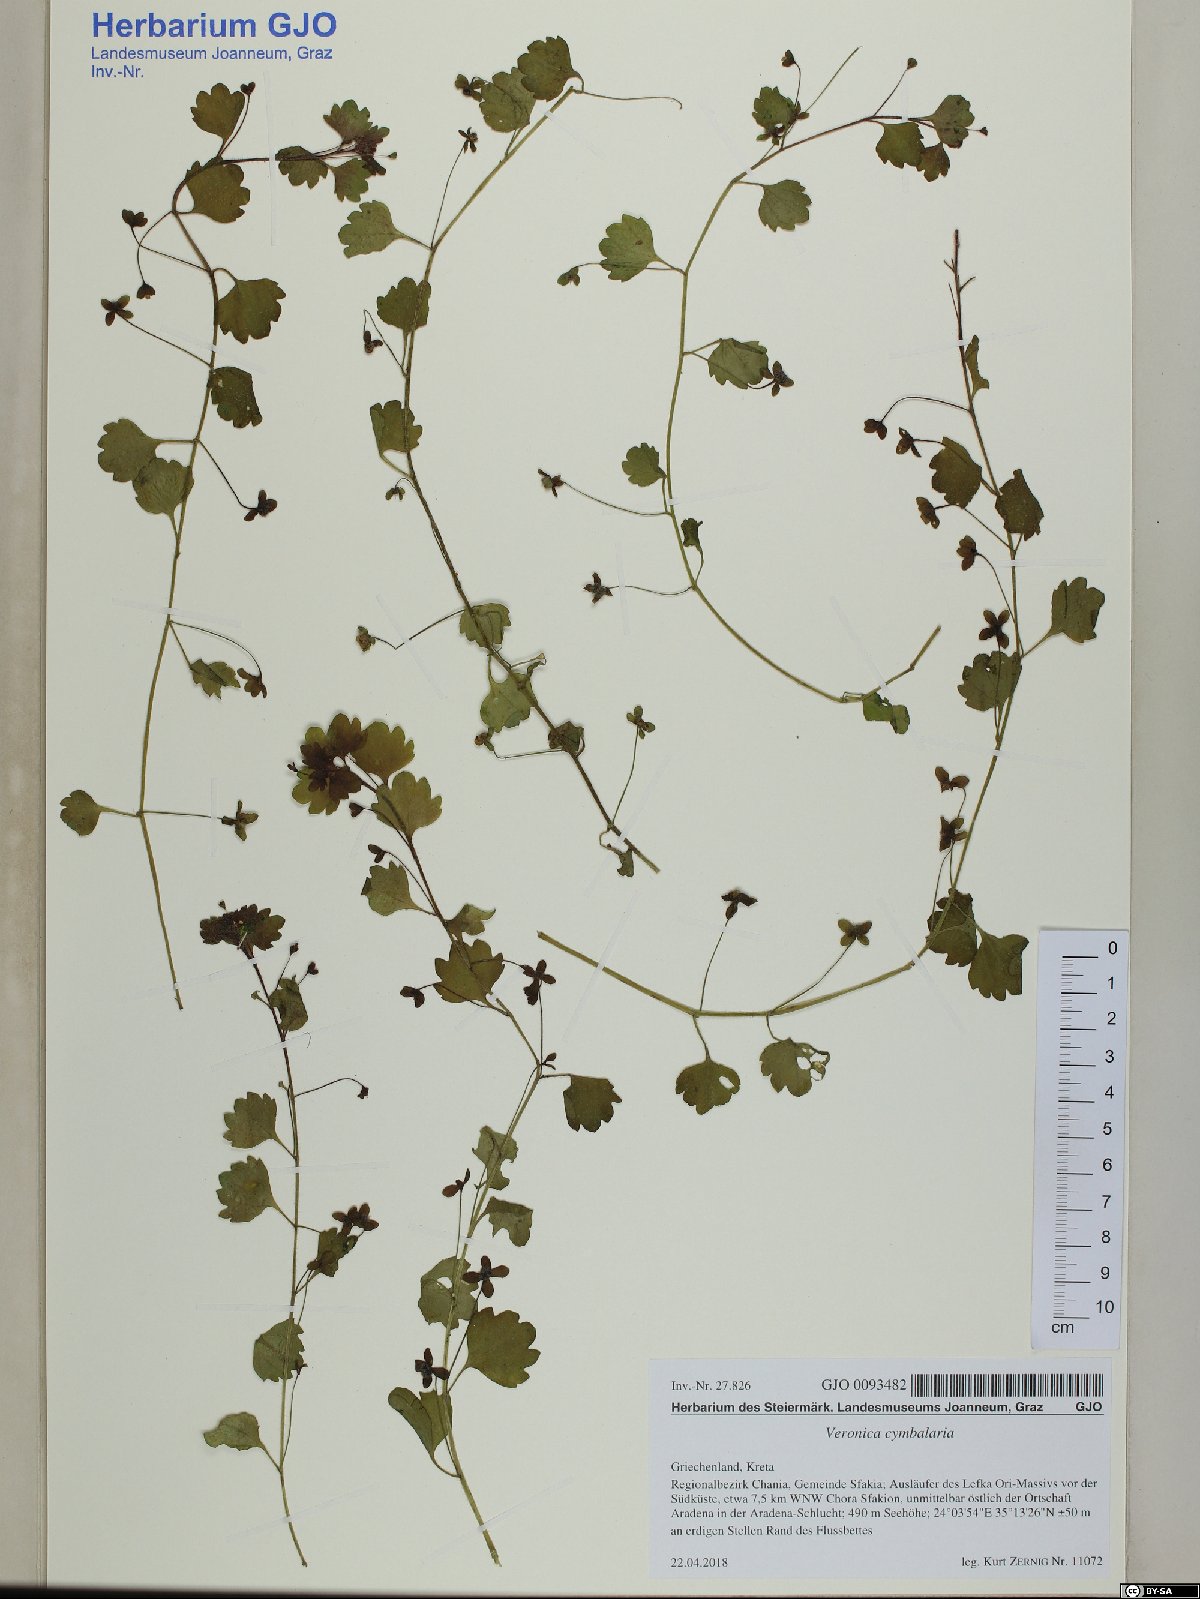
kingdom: Plantae
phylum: Tracheophyta
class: Magnoliopsida
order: Lamiales
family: Plantaginaceae
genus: Veronica
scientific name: Veronica cymbalaria
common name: Pale speedwell
